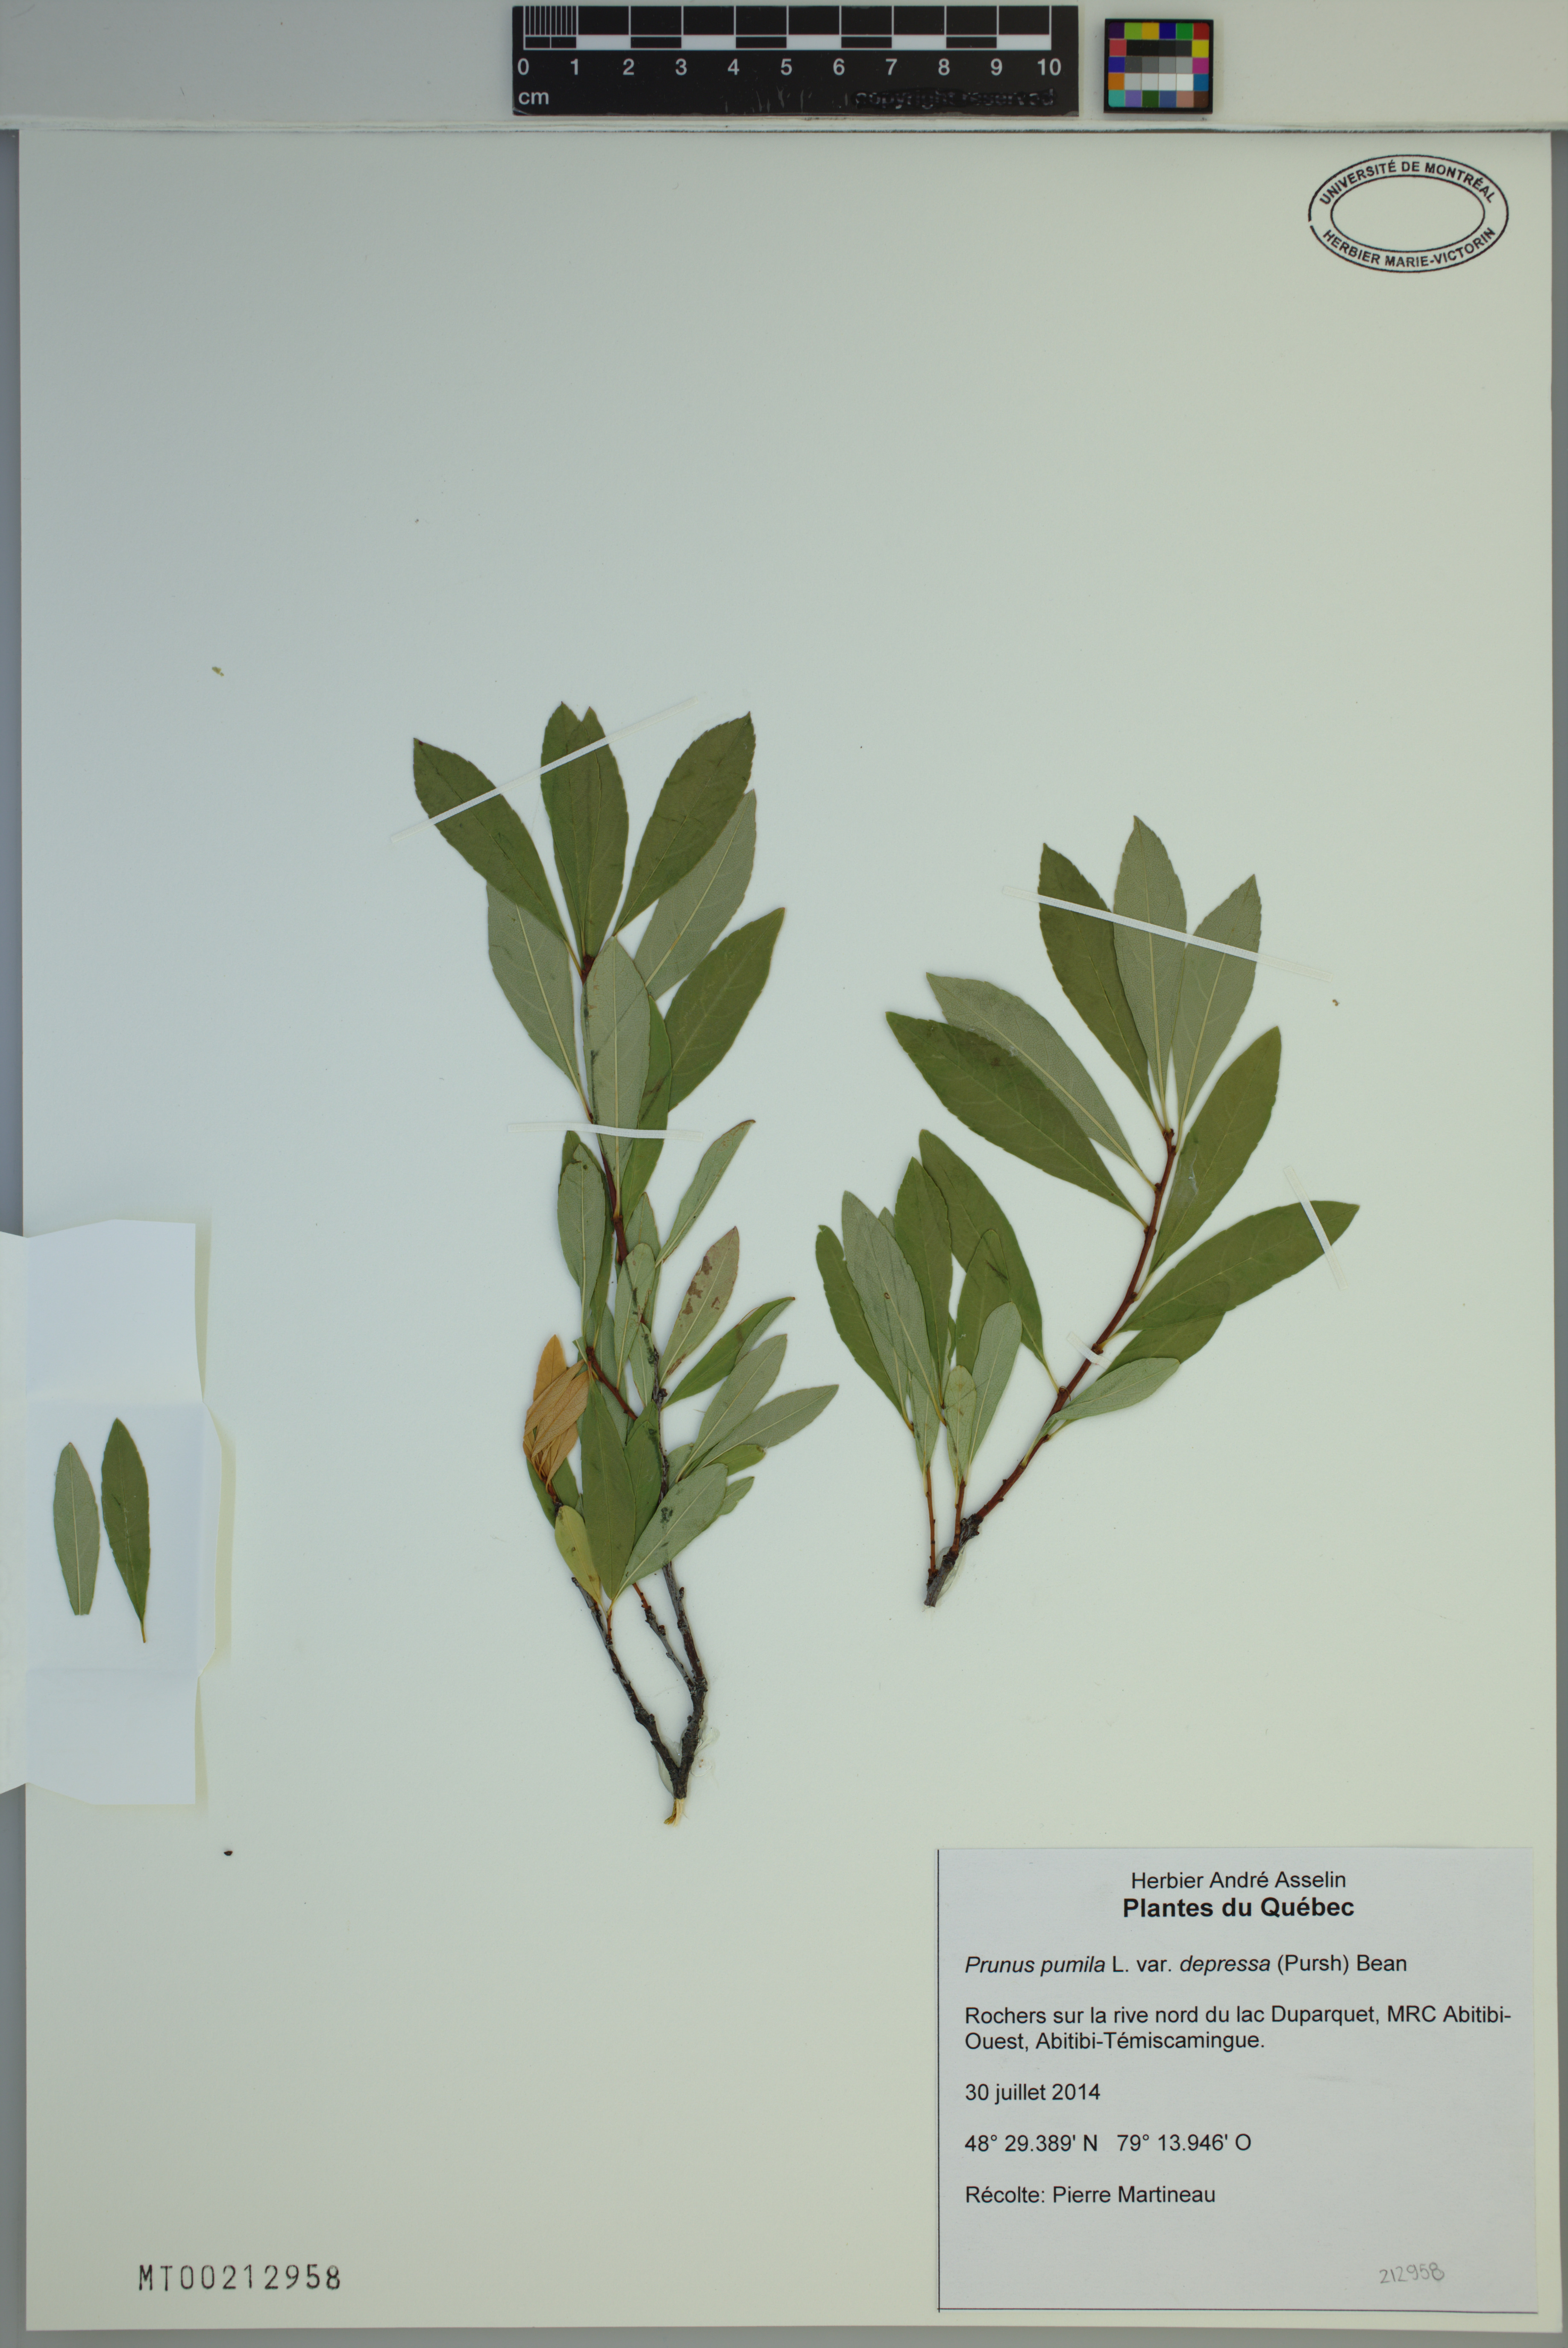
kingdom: Plantae
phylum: Tracheophyta
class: Magnoliopsida
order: Rosales
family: Rosaceae
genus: Prunus
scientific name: Prunus pumila
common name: Dwarf cherry
